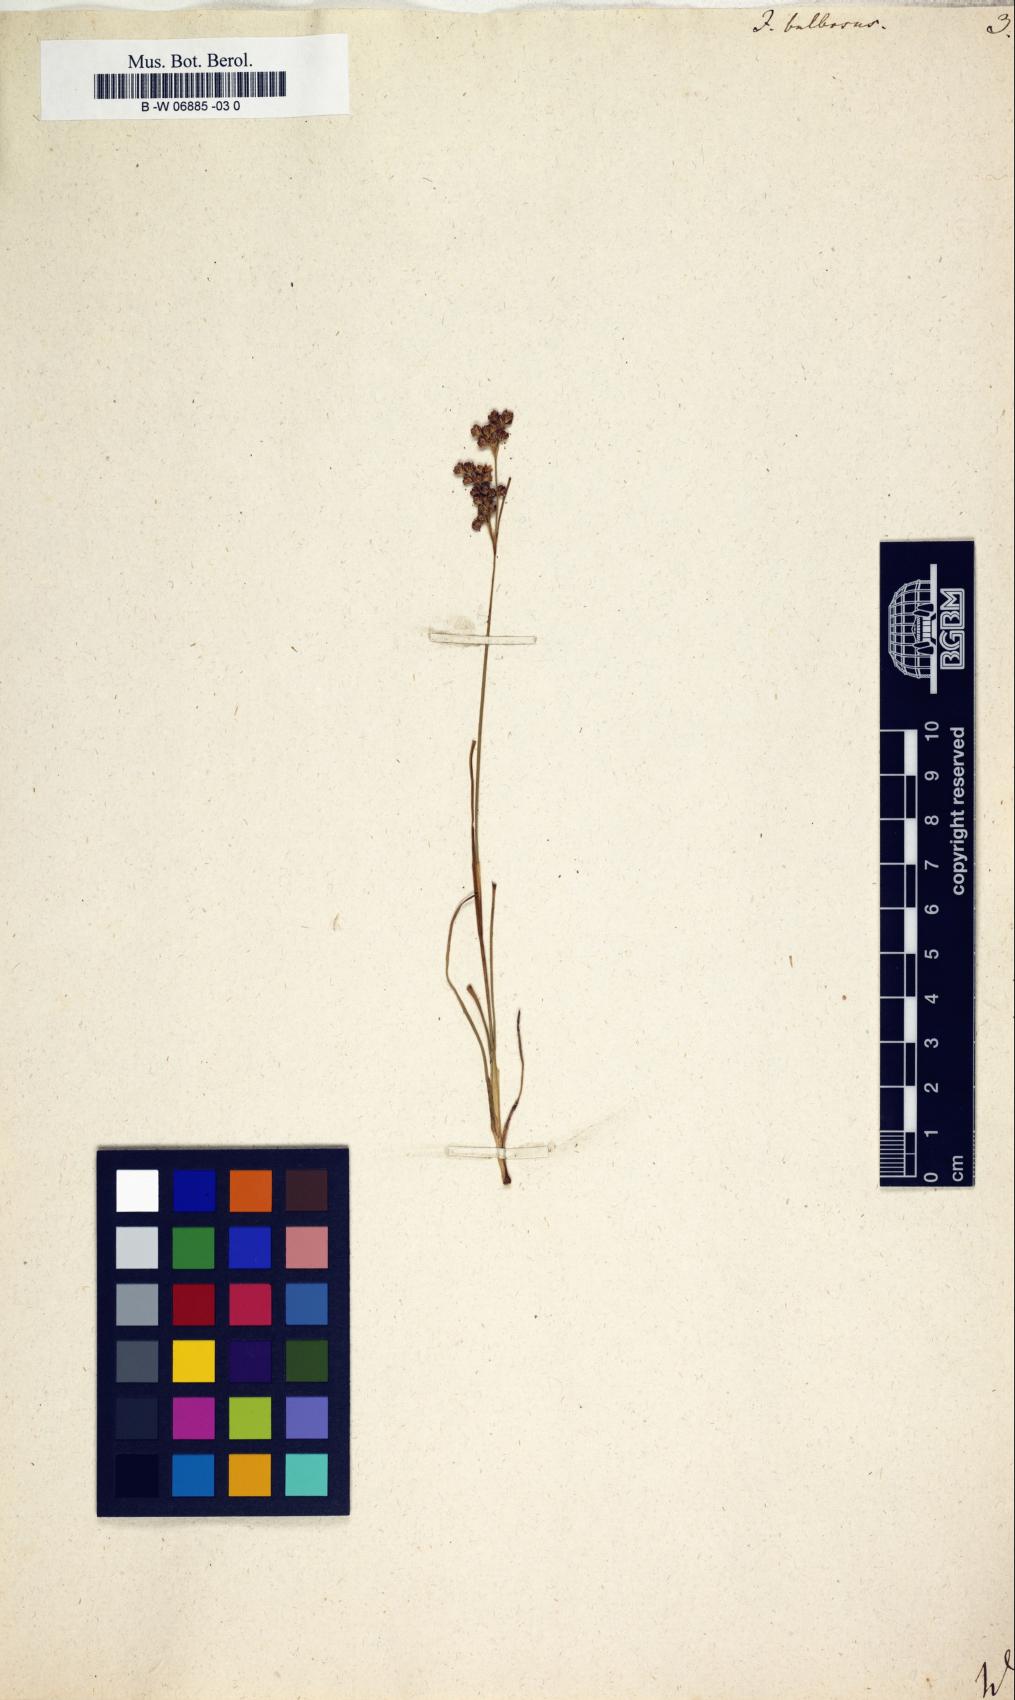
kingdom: Plantae
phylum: Tracheophyta
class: Liliopsida
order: Poales
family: Juncaceae
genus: Juncus
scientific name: Juncus bulbosus
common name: Bulbous rush
